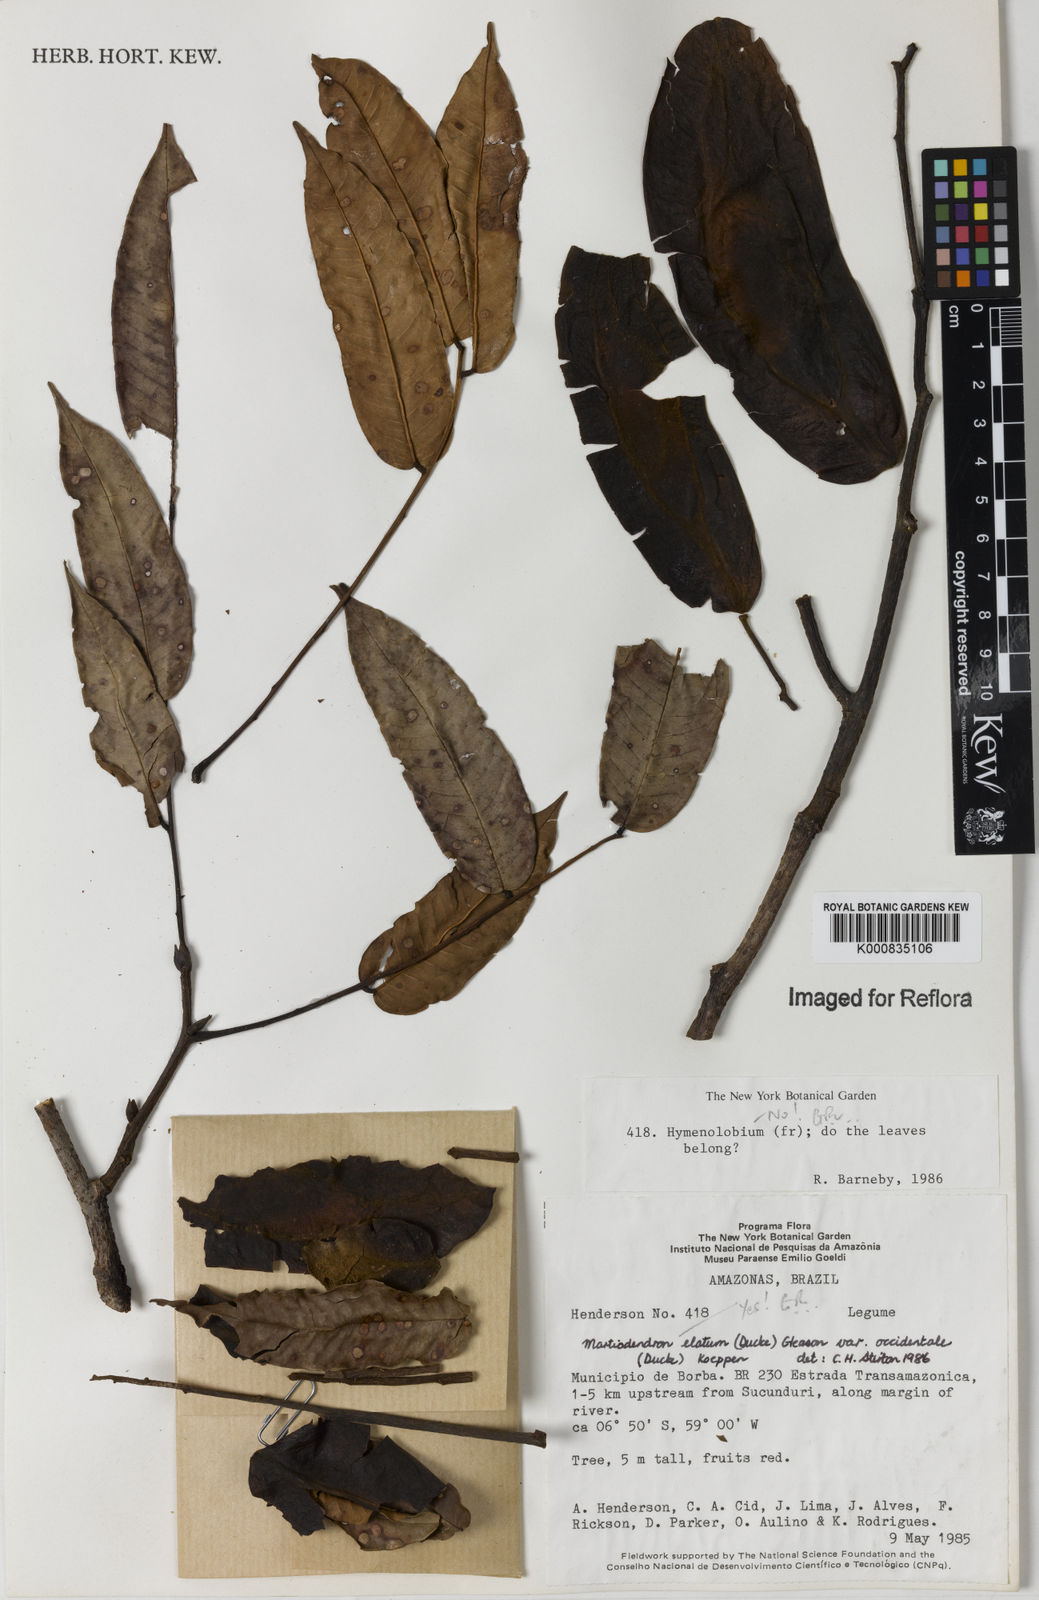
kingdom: Plantae
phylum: Tracheophyta
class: Magnoliopsida
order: Fabales
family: Fabaceae
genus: Martiodendron
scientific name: Martiodendron elatum
